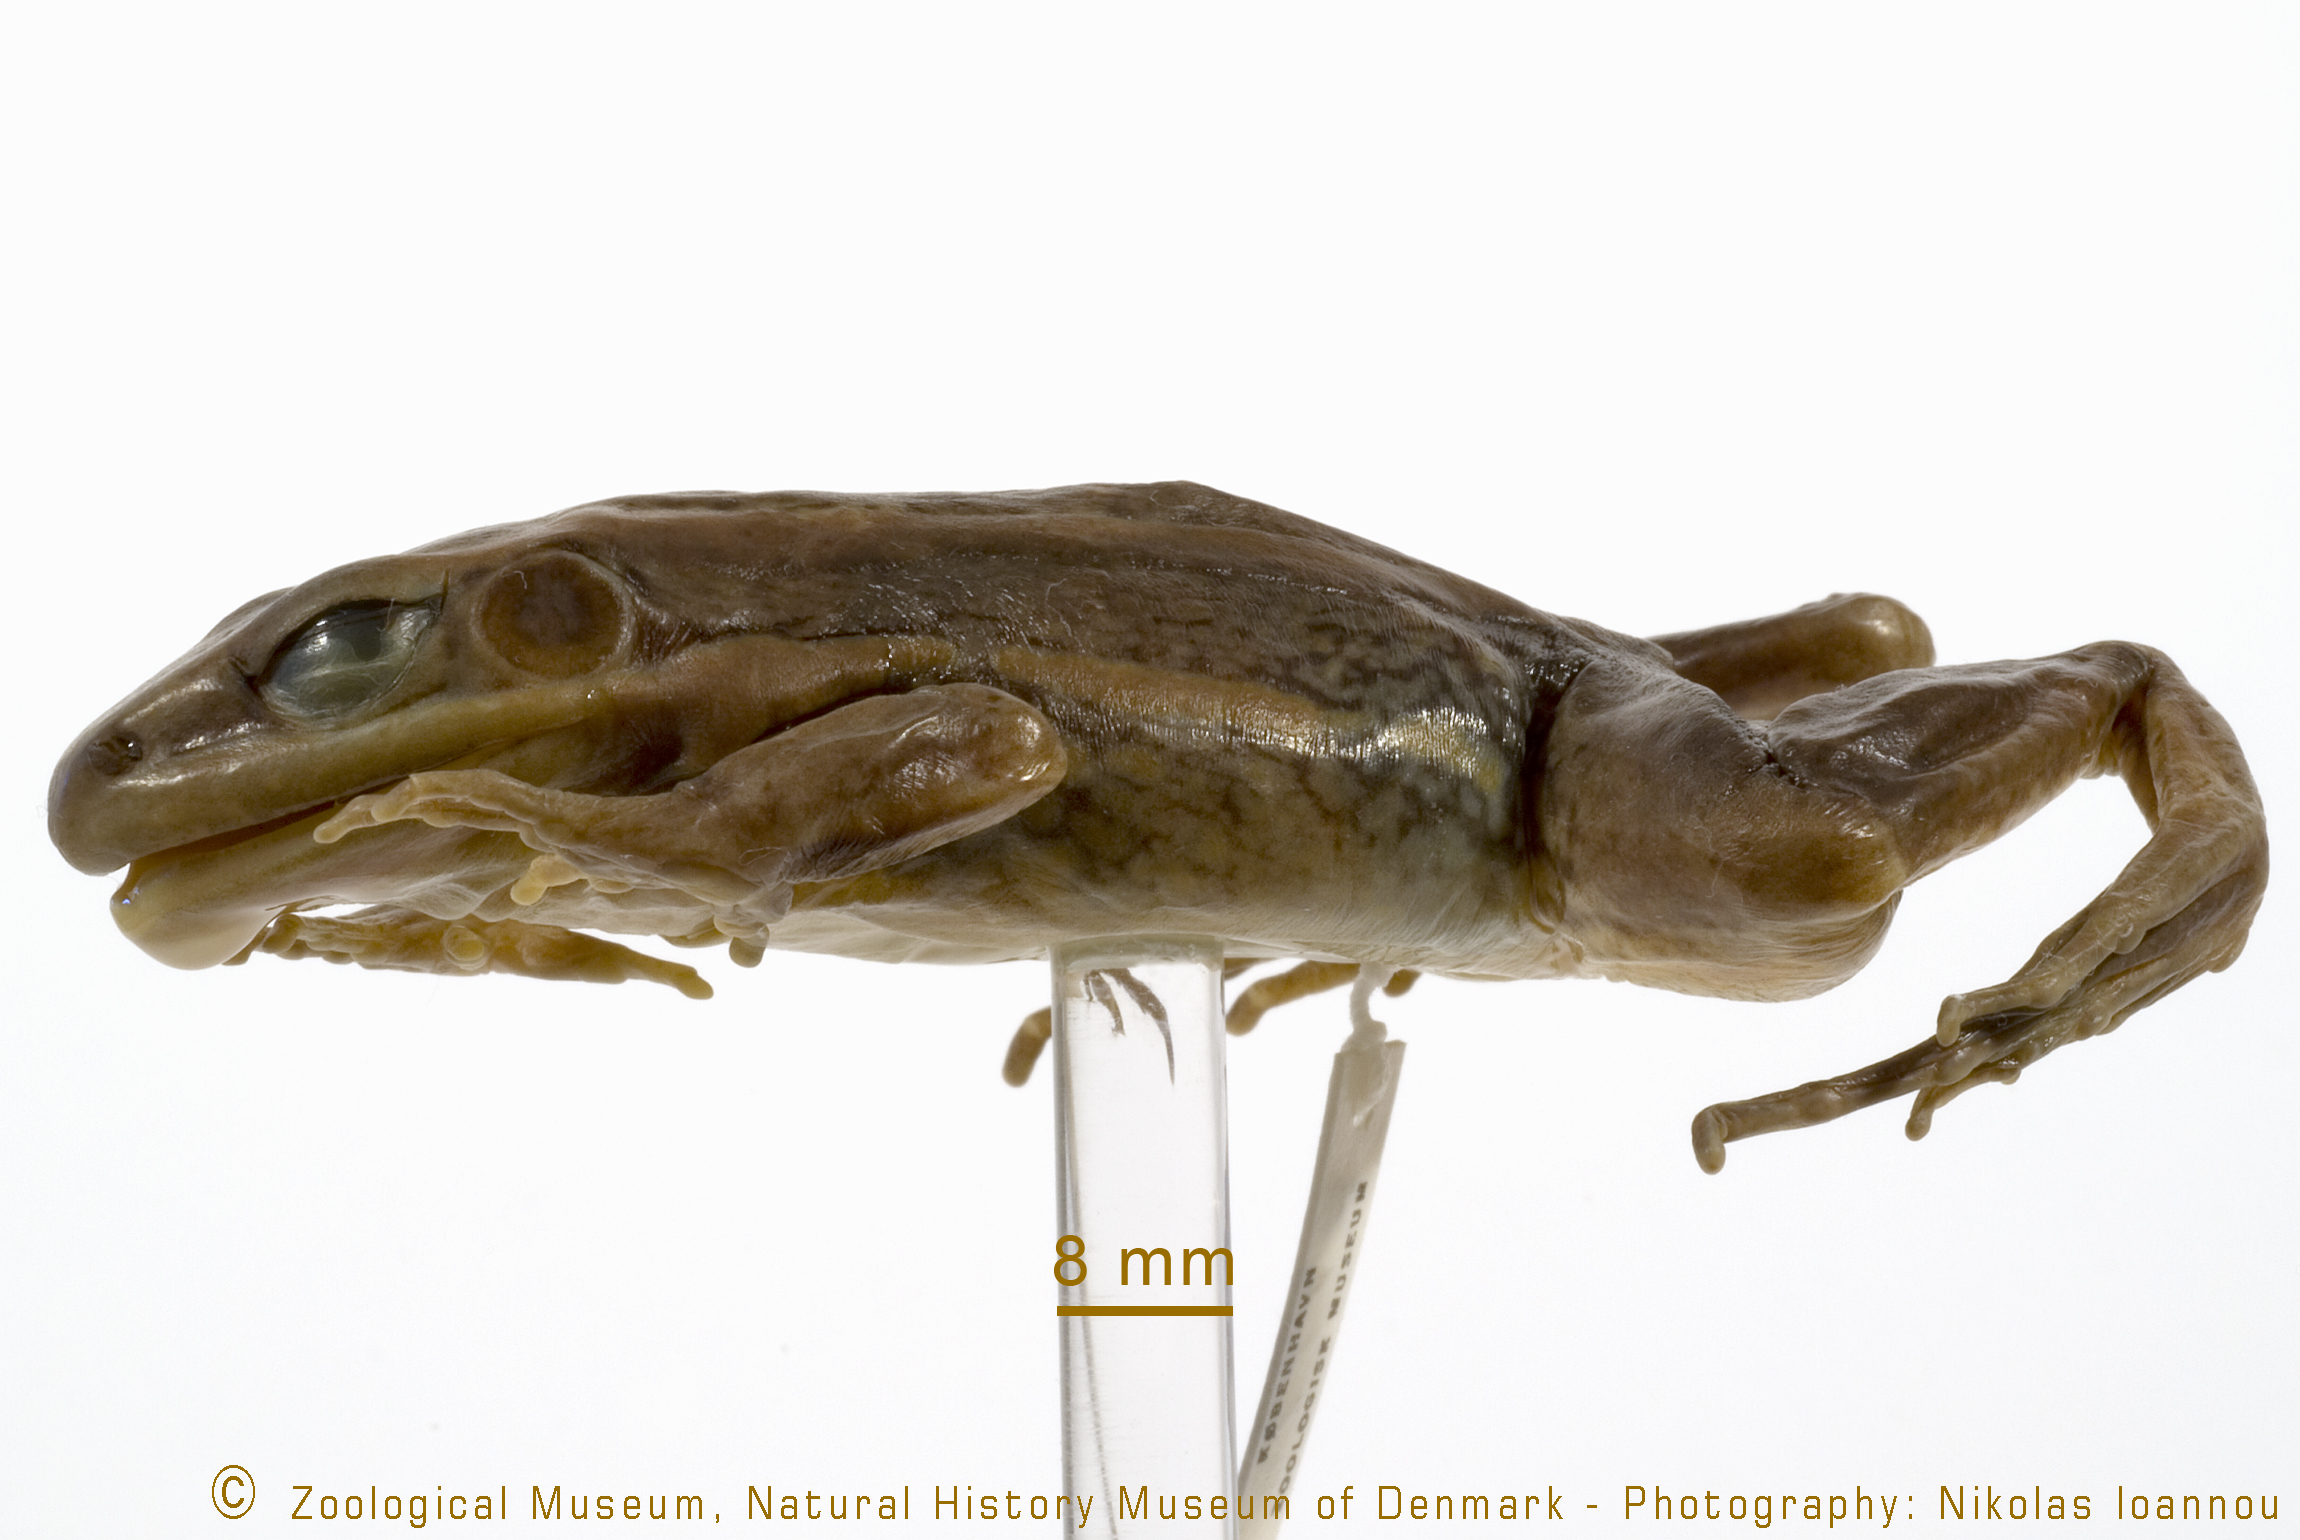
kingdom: Animalia
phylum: Chordata
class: Amphibia
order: Anura
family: Ranidae
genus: Amnirana
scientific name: Amnirana galamensis
